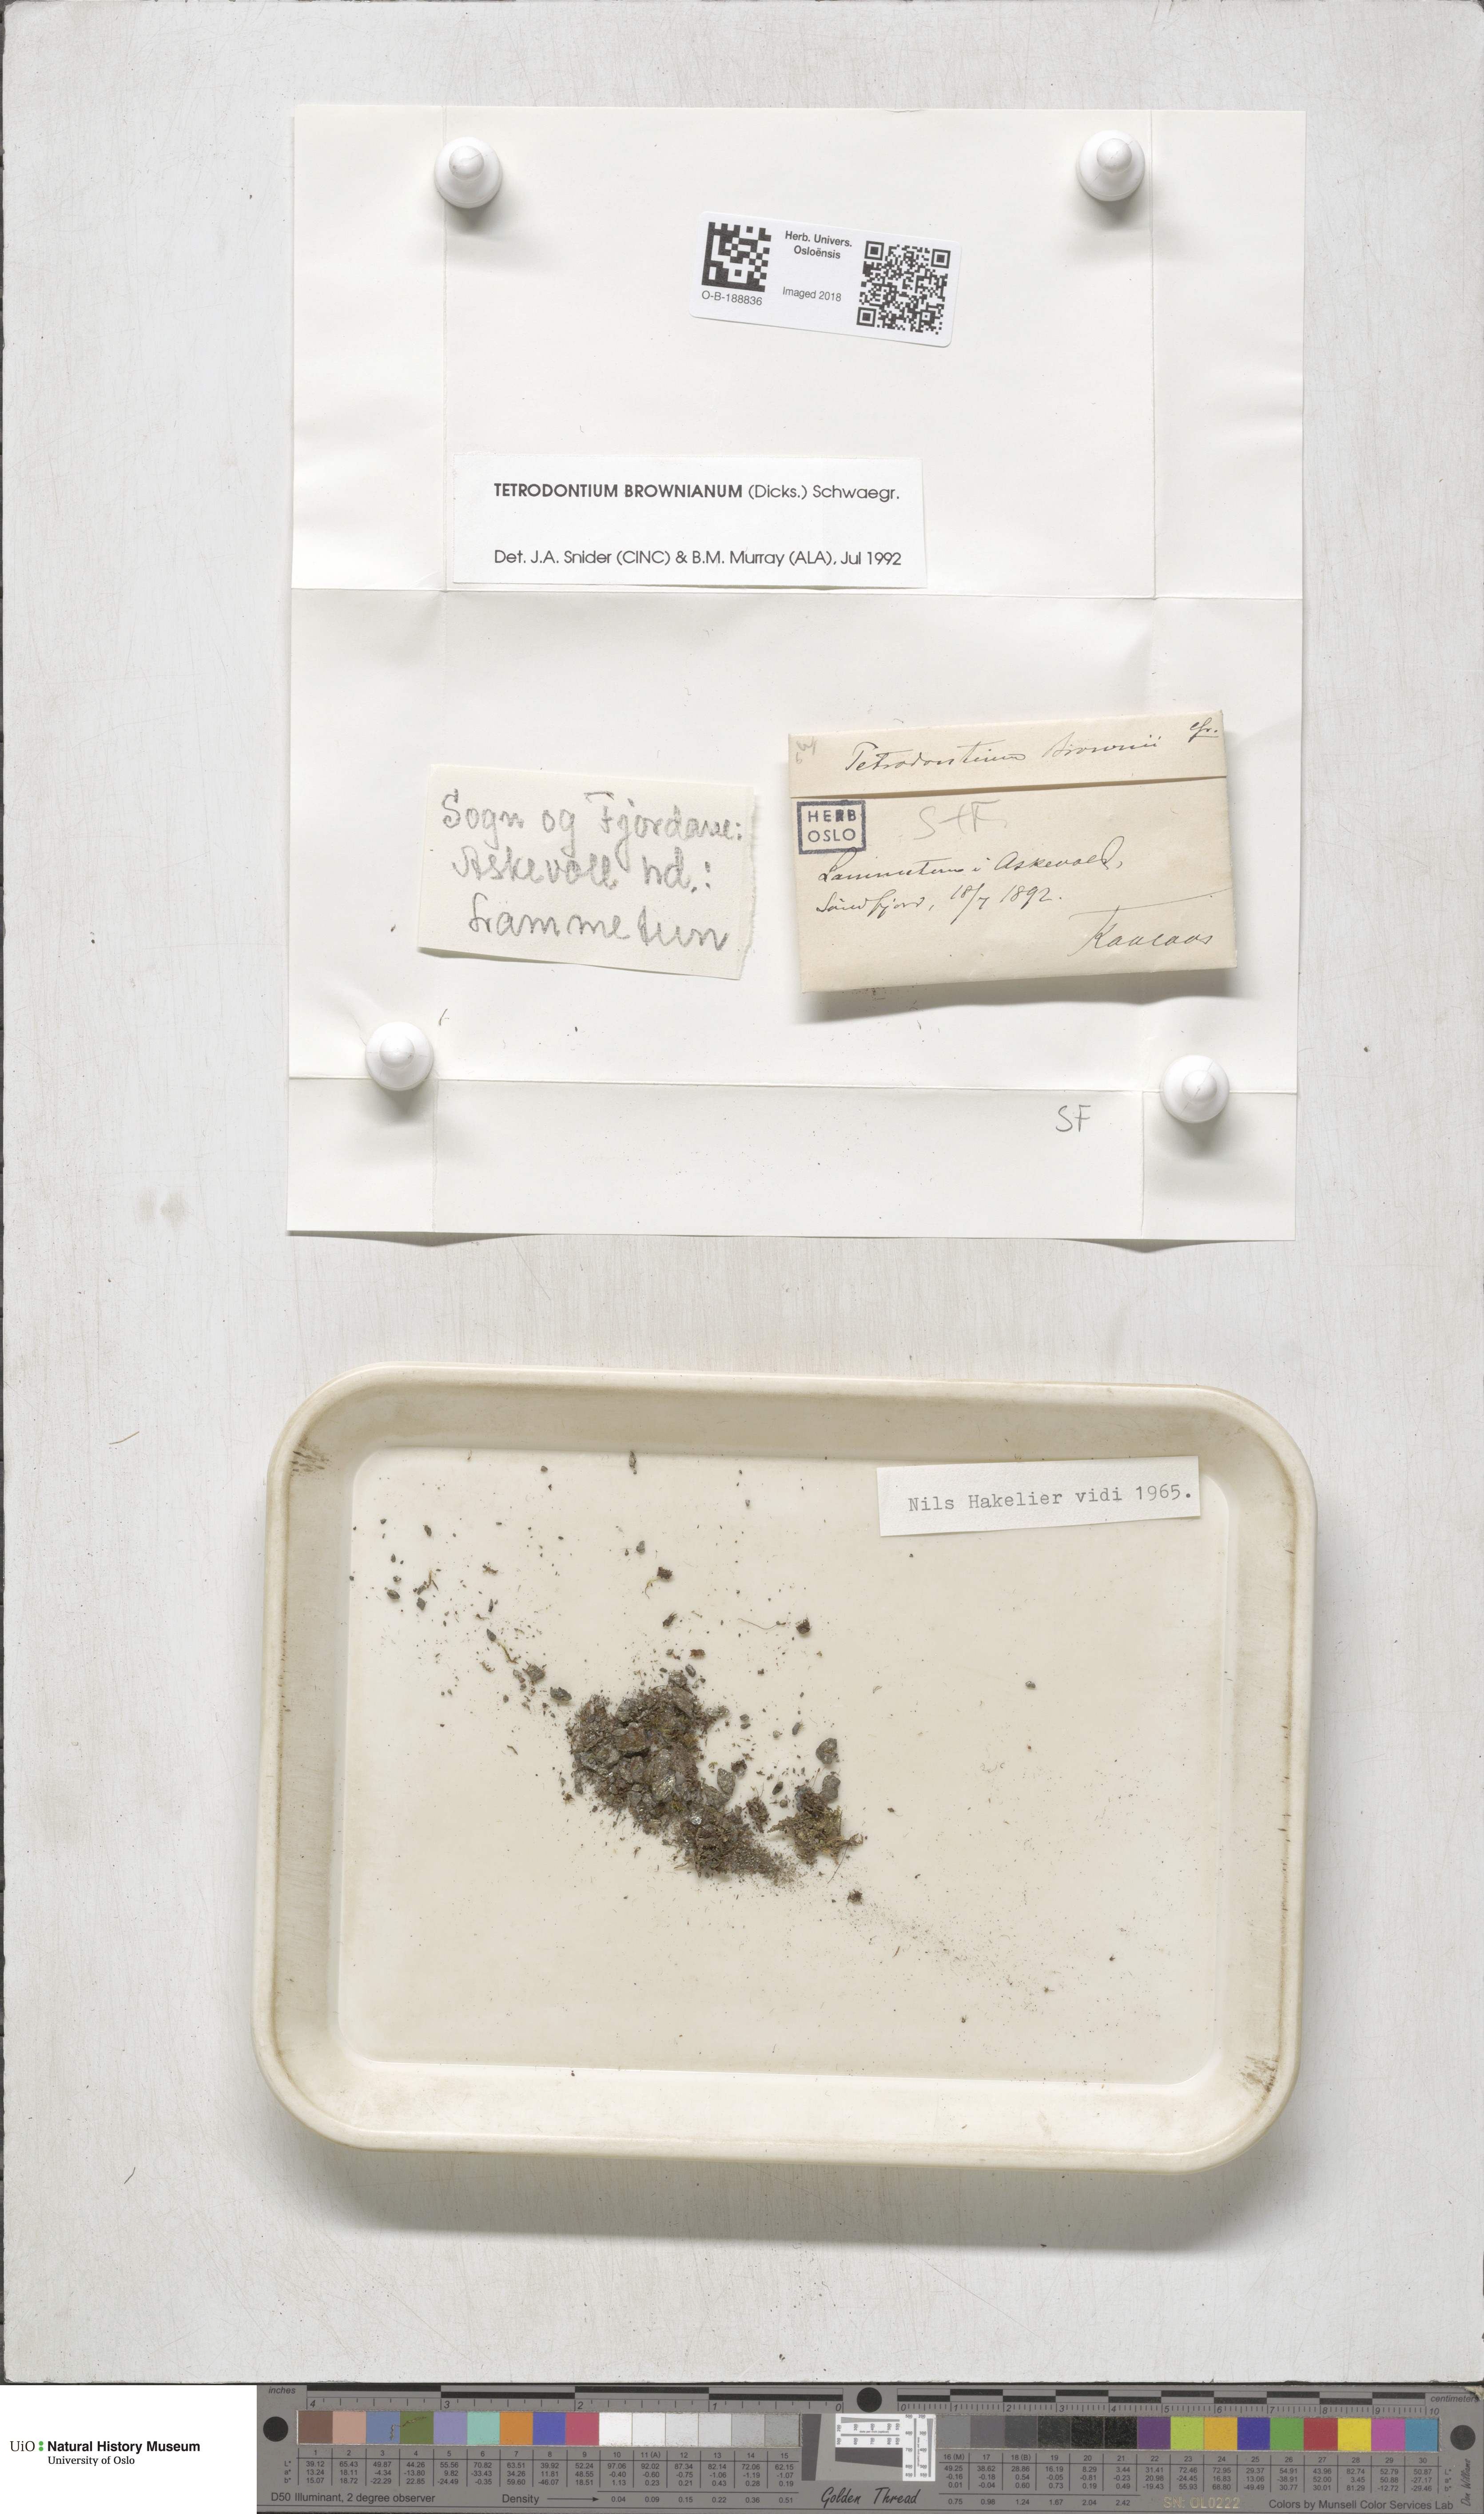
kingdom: Plantae
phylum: Bryophyta
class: Polytrichopsida
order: Tetraphidales
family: Tetraphidaceae
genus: Tetrodontium
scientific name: Tetrodontium brownianum
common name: Brown's four-toothed moss
